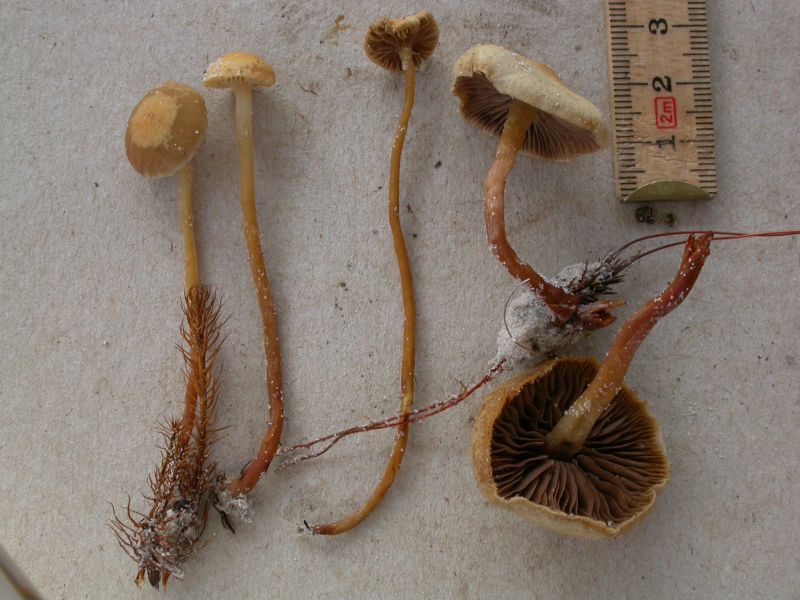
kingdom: Fungi
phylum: Basidiomycota
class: Agaricomycetes
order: Agaricales
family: Strophariaceae
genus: Hypholoma
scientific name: Hypholoma elongatum
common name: slank svovlhat
